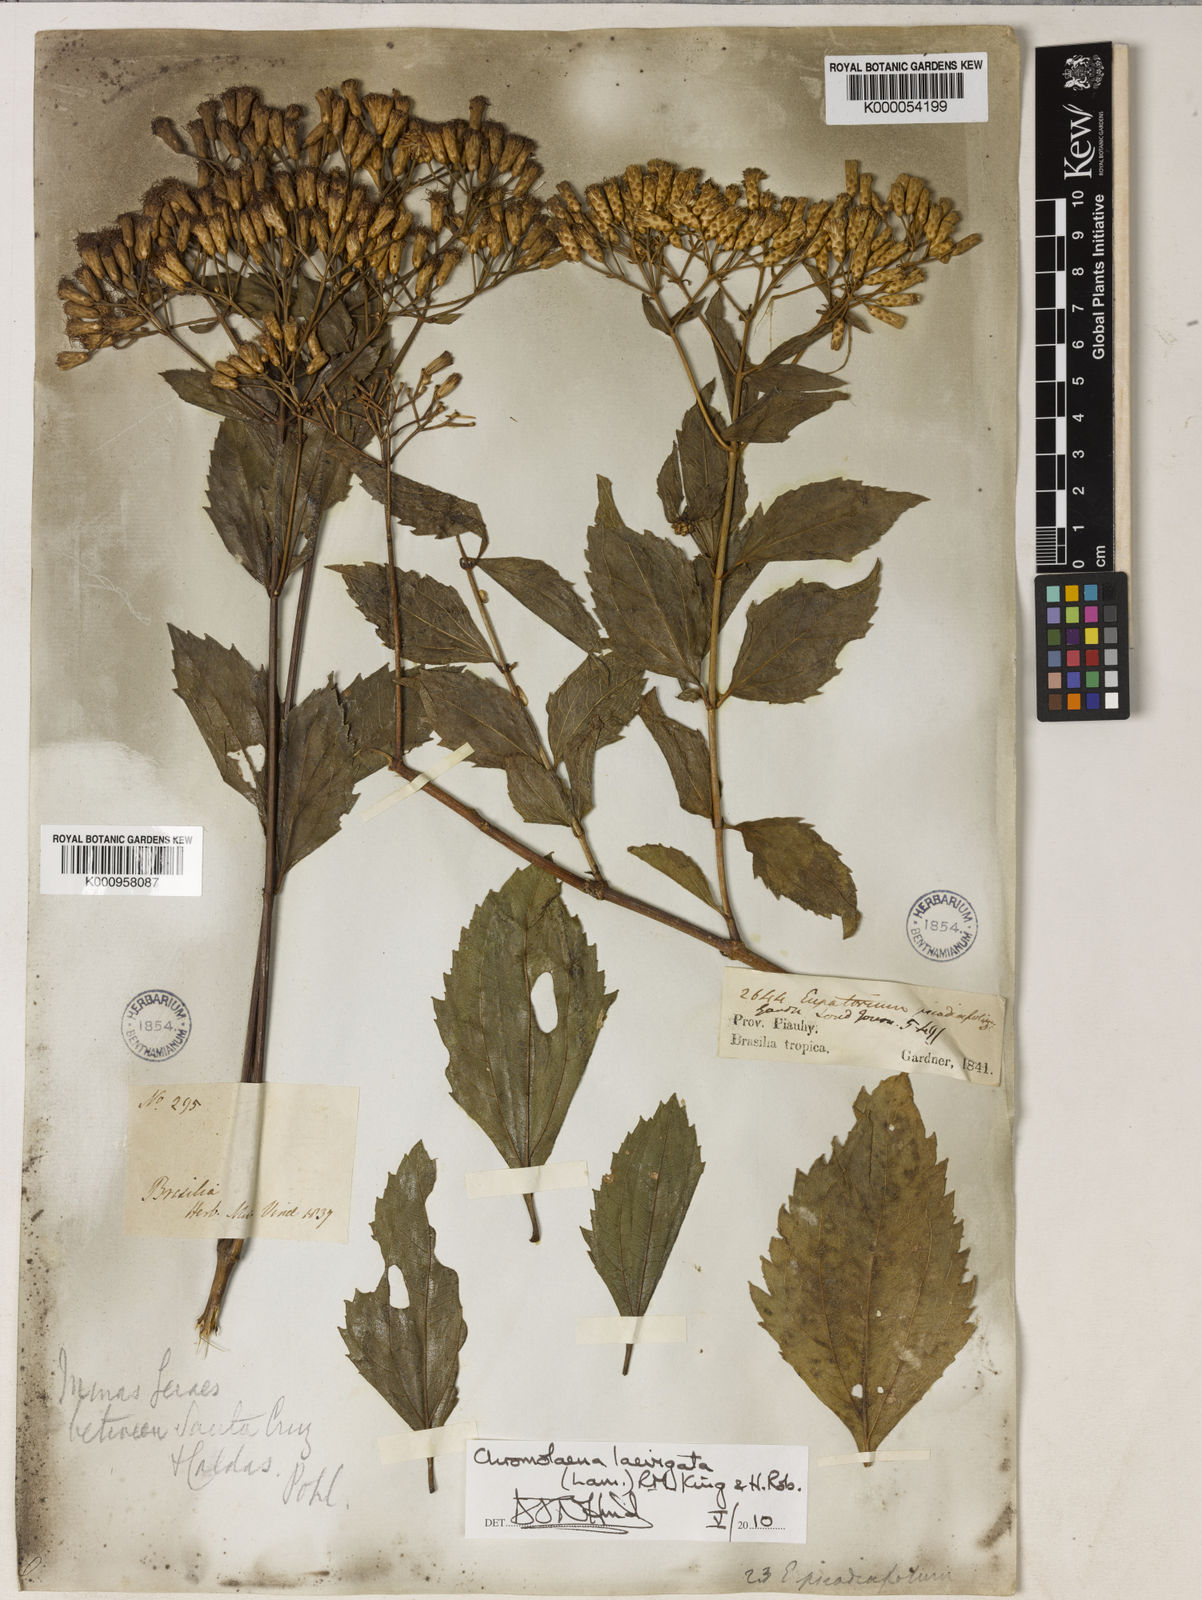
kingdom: Plantae
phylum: Tracheophyta
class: Magnoliopsida
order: Asterales
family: Asteraceae
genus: Chromolaena
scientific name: Chromolaena laevigata
